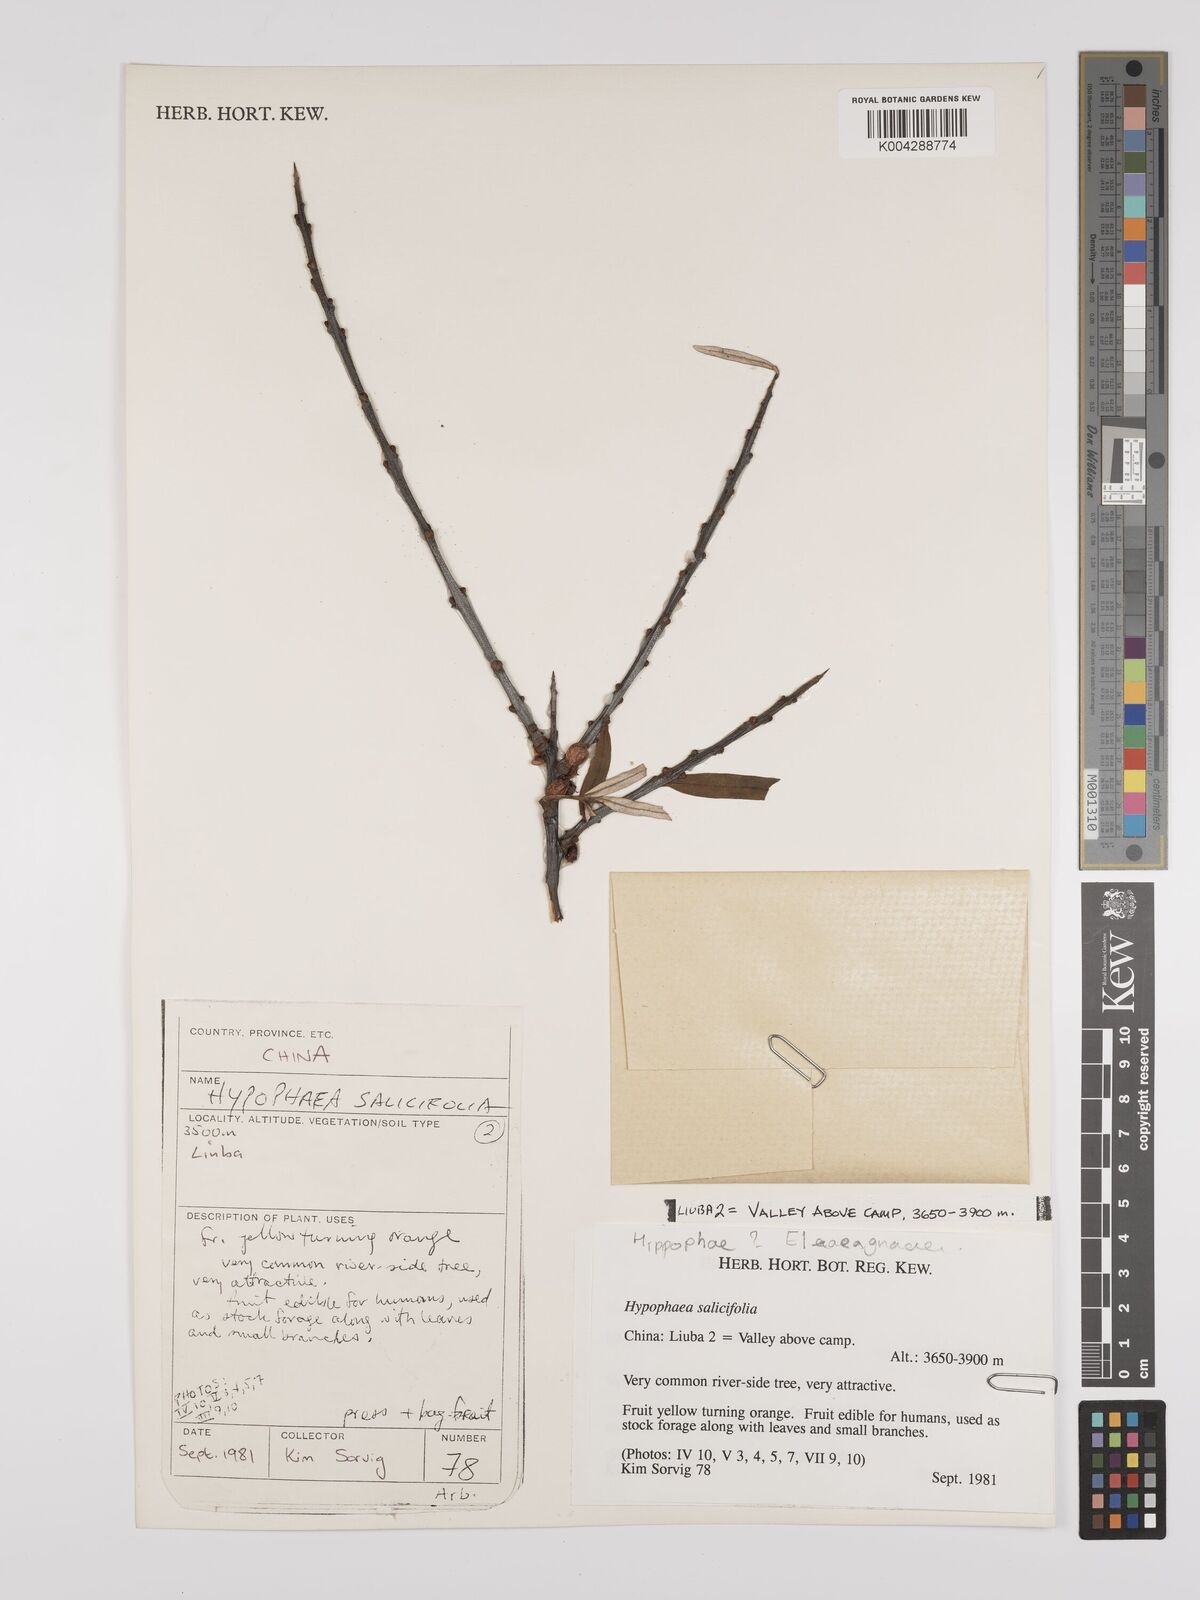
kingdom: Plantae
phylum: Tracheophyta
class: Magnoliopsida
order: Rosales
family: Elaeagnaceae
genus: Hippophae
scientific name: Hippophae salicifolia
